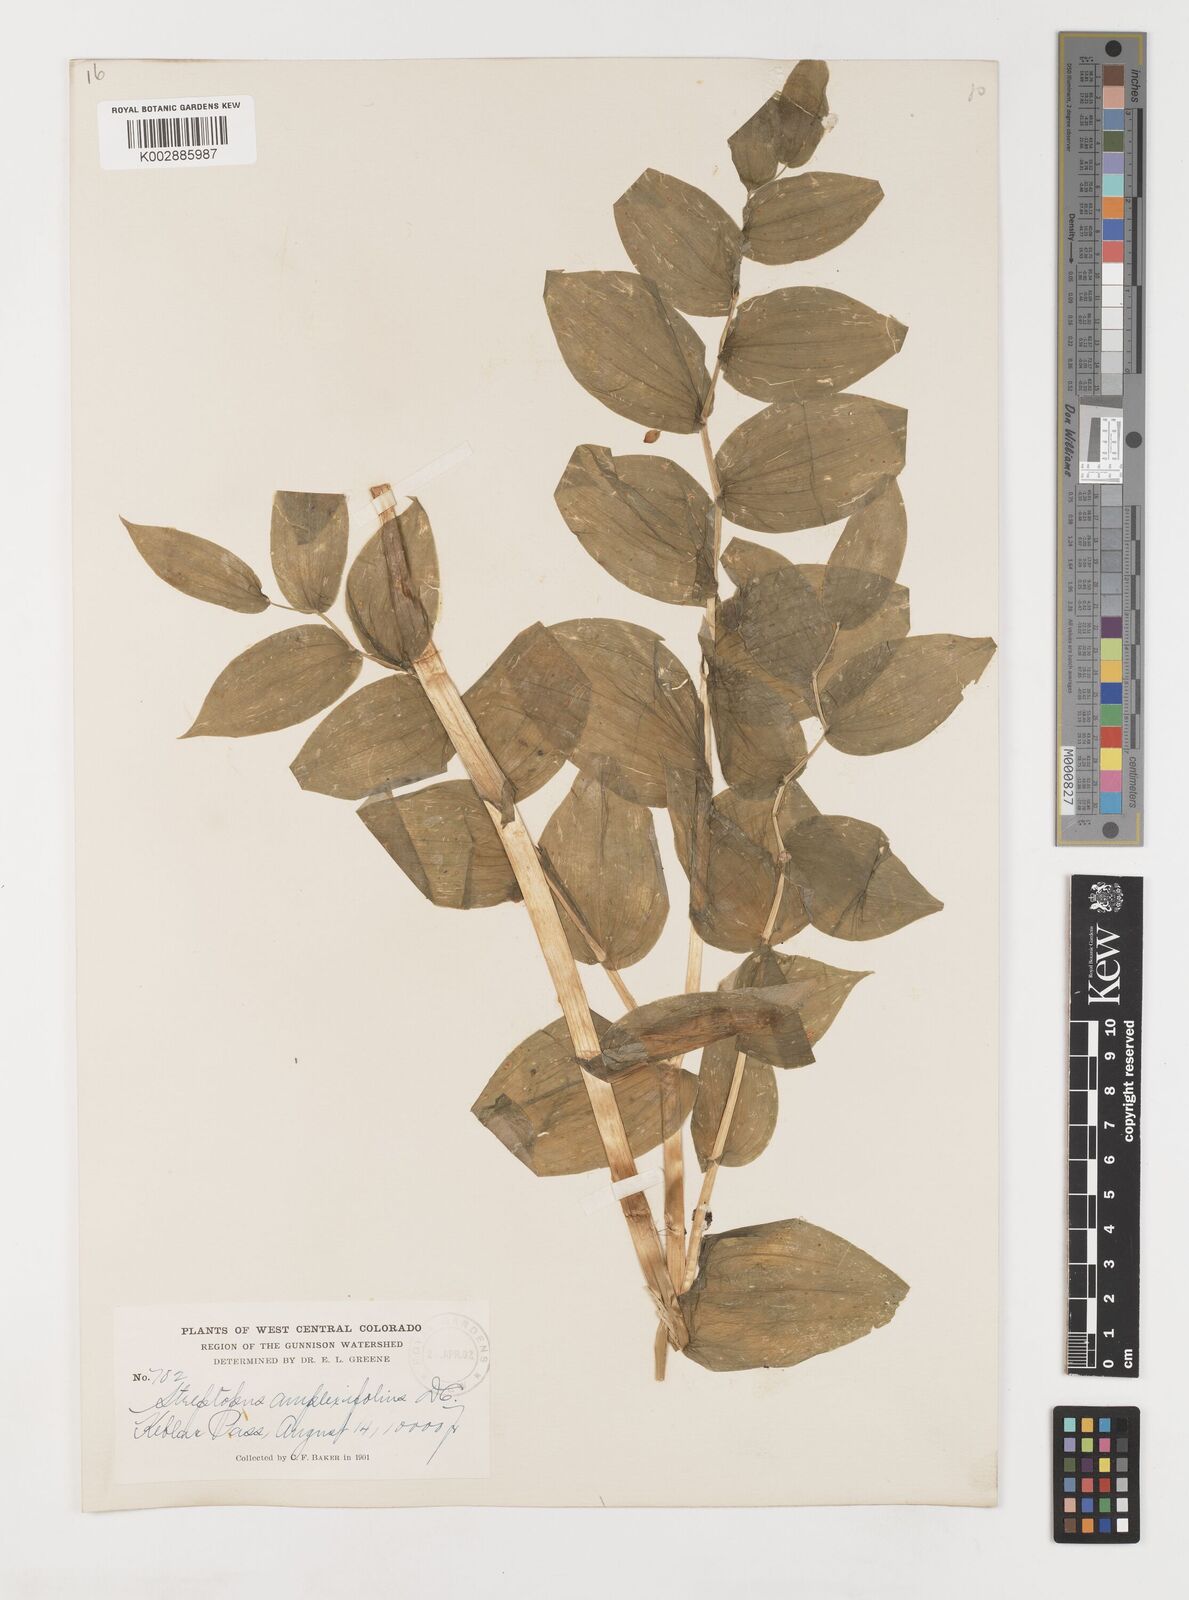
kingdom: Plantae
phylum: Tracheophyta
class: Liliopsida
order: Liliales
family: Liliaceae
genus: Streptopus
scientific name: Streptopus amplexifolius
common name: Clasp twisted stalk
